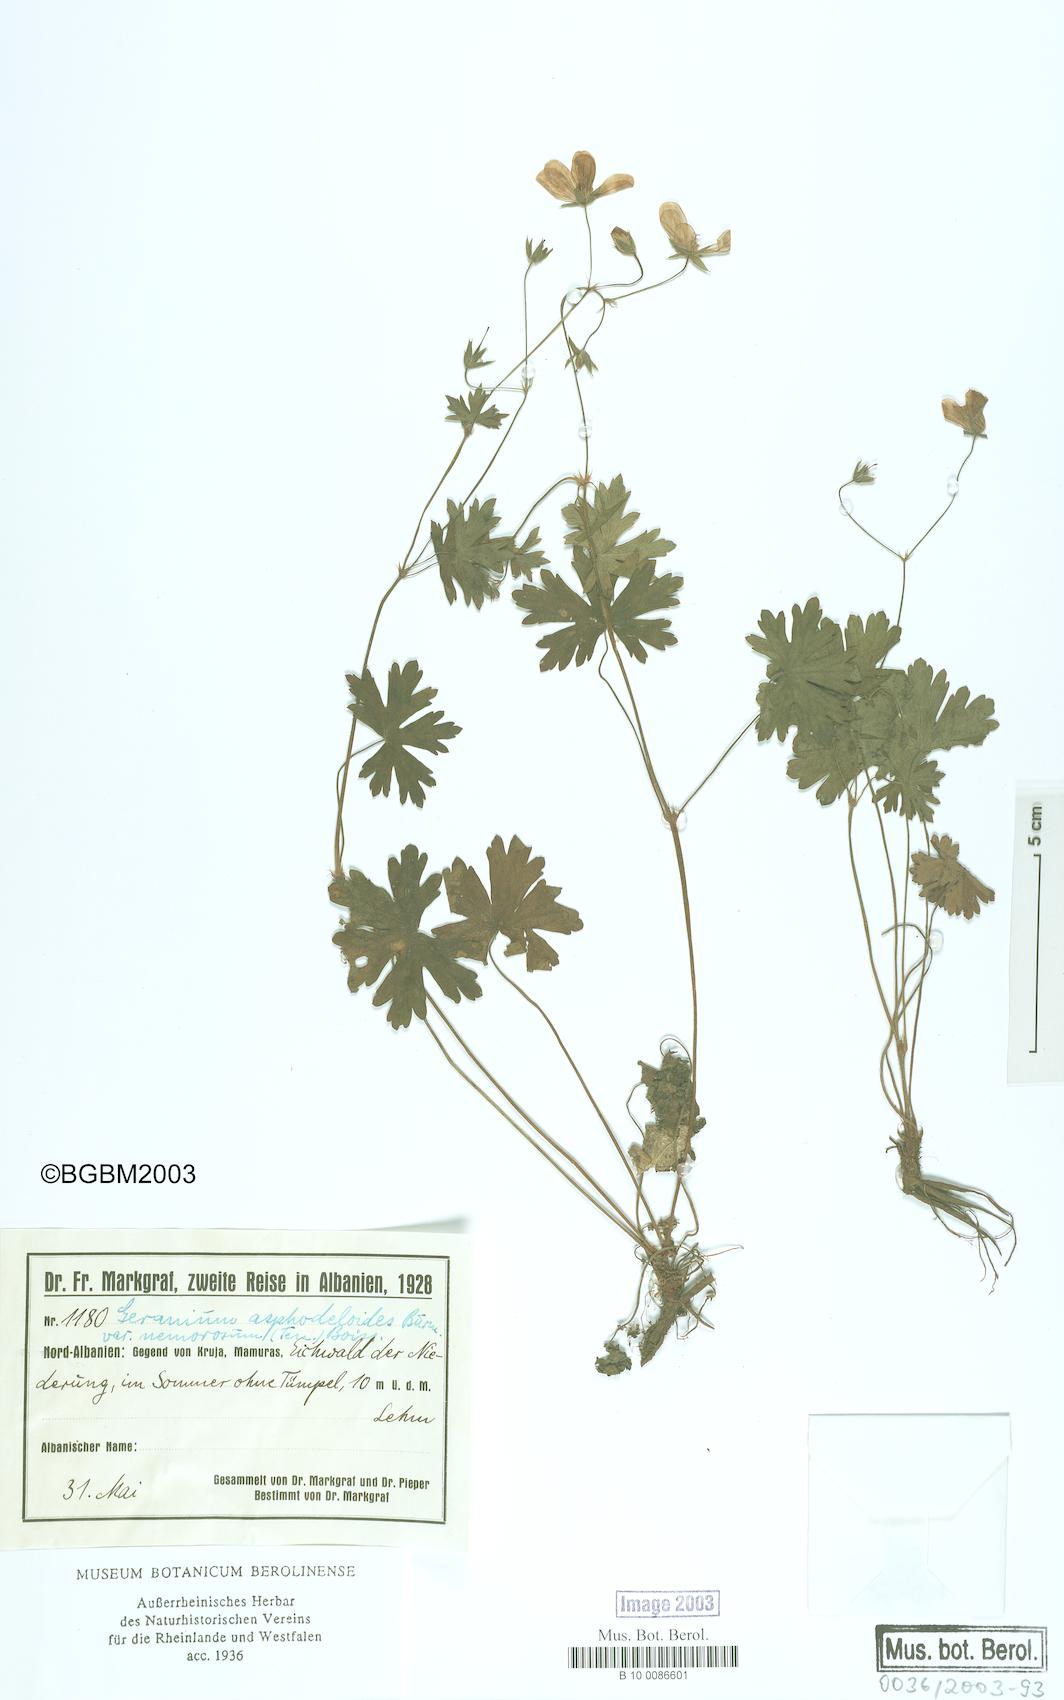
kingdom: Plantae
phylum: Tracheophyta
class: Magnoliopsida
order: Geraniales
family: Geraniaceae
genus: Geranium
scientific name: Geranium asphodeloides
